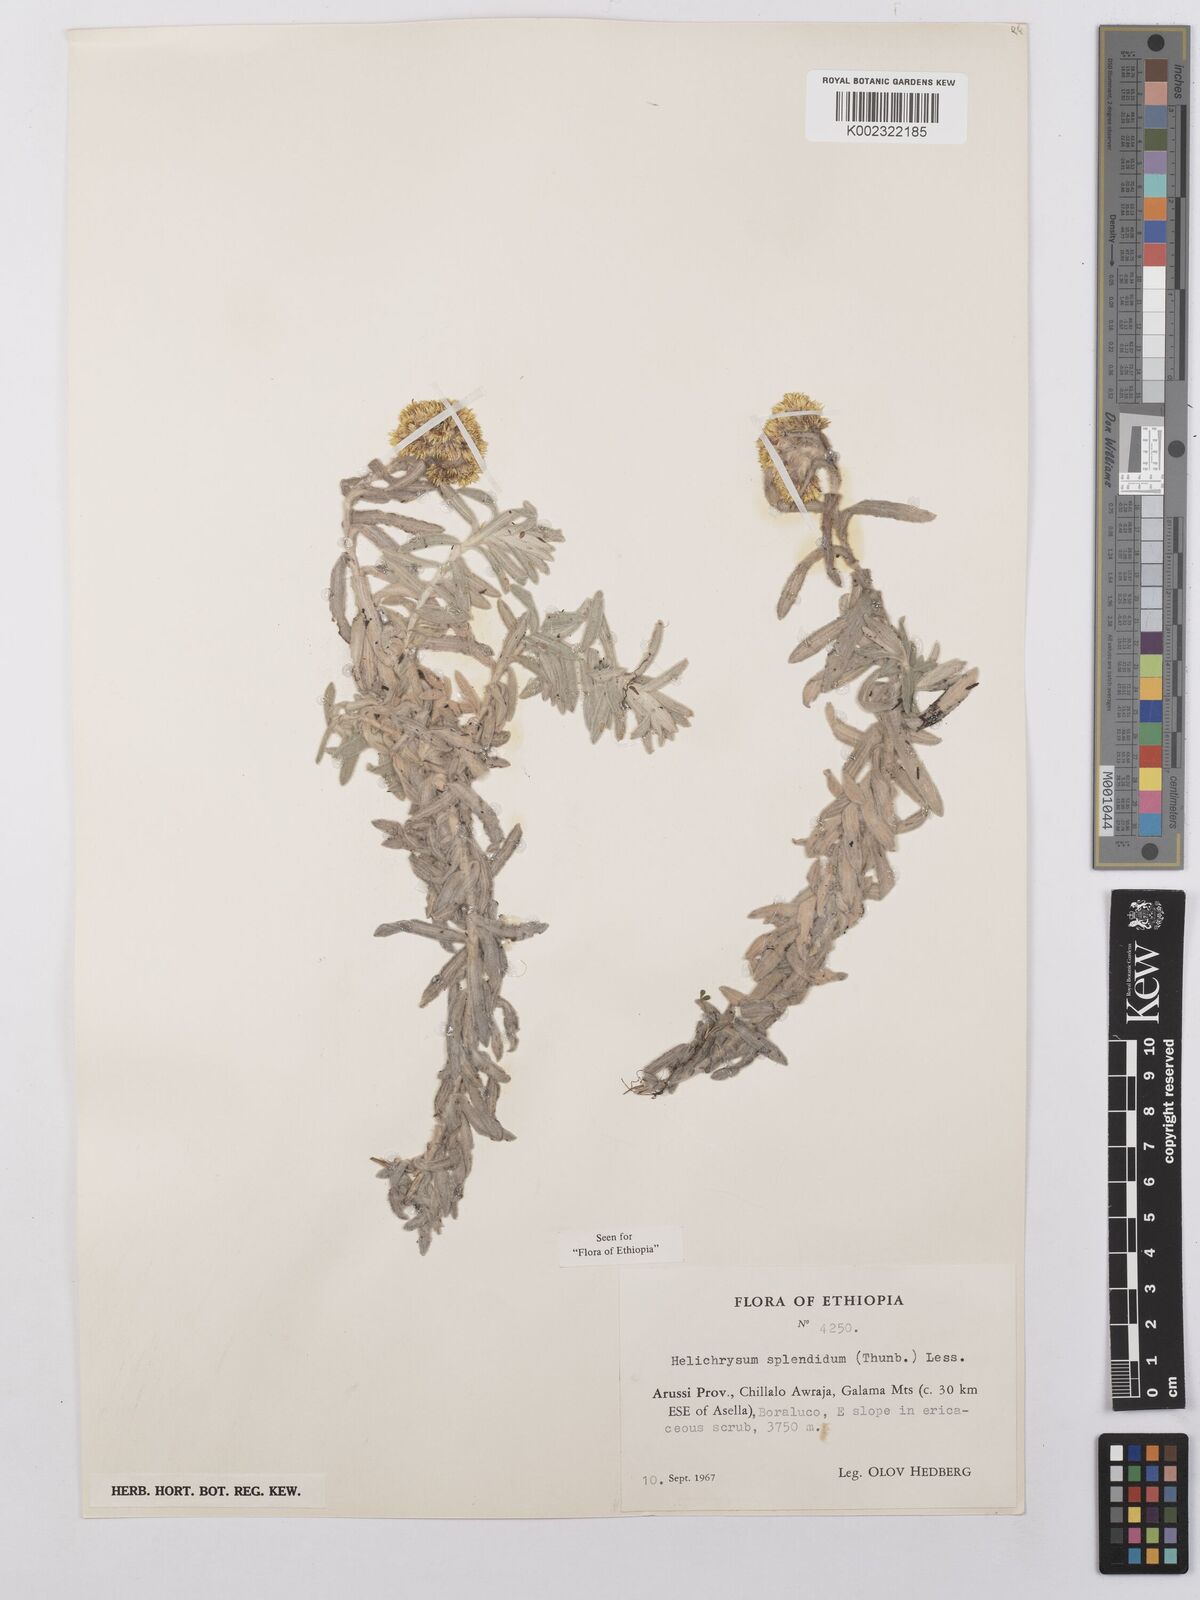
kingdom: Plantae
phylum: Tracheophyta
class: Magnoliopsida
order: Asterales
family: Asteraceae
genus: Helichrysum
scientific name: Helichrysum splendidum
